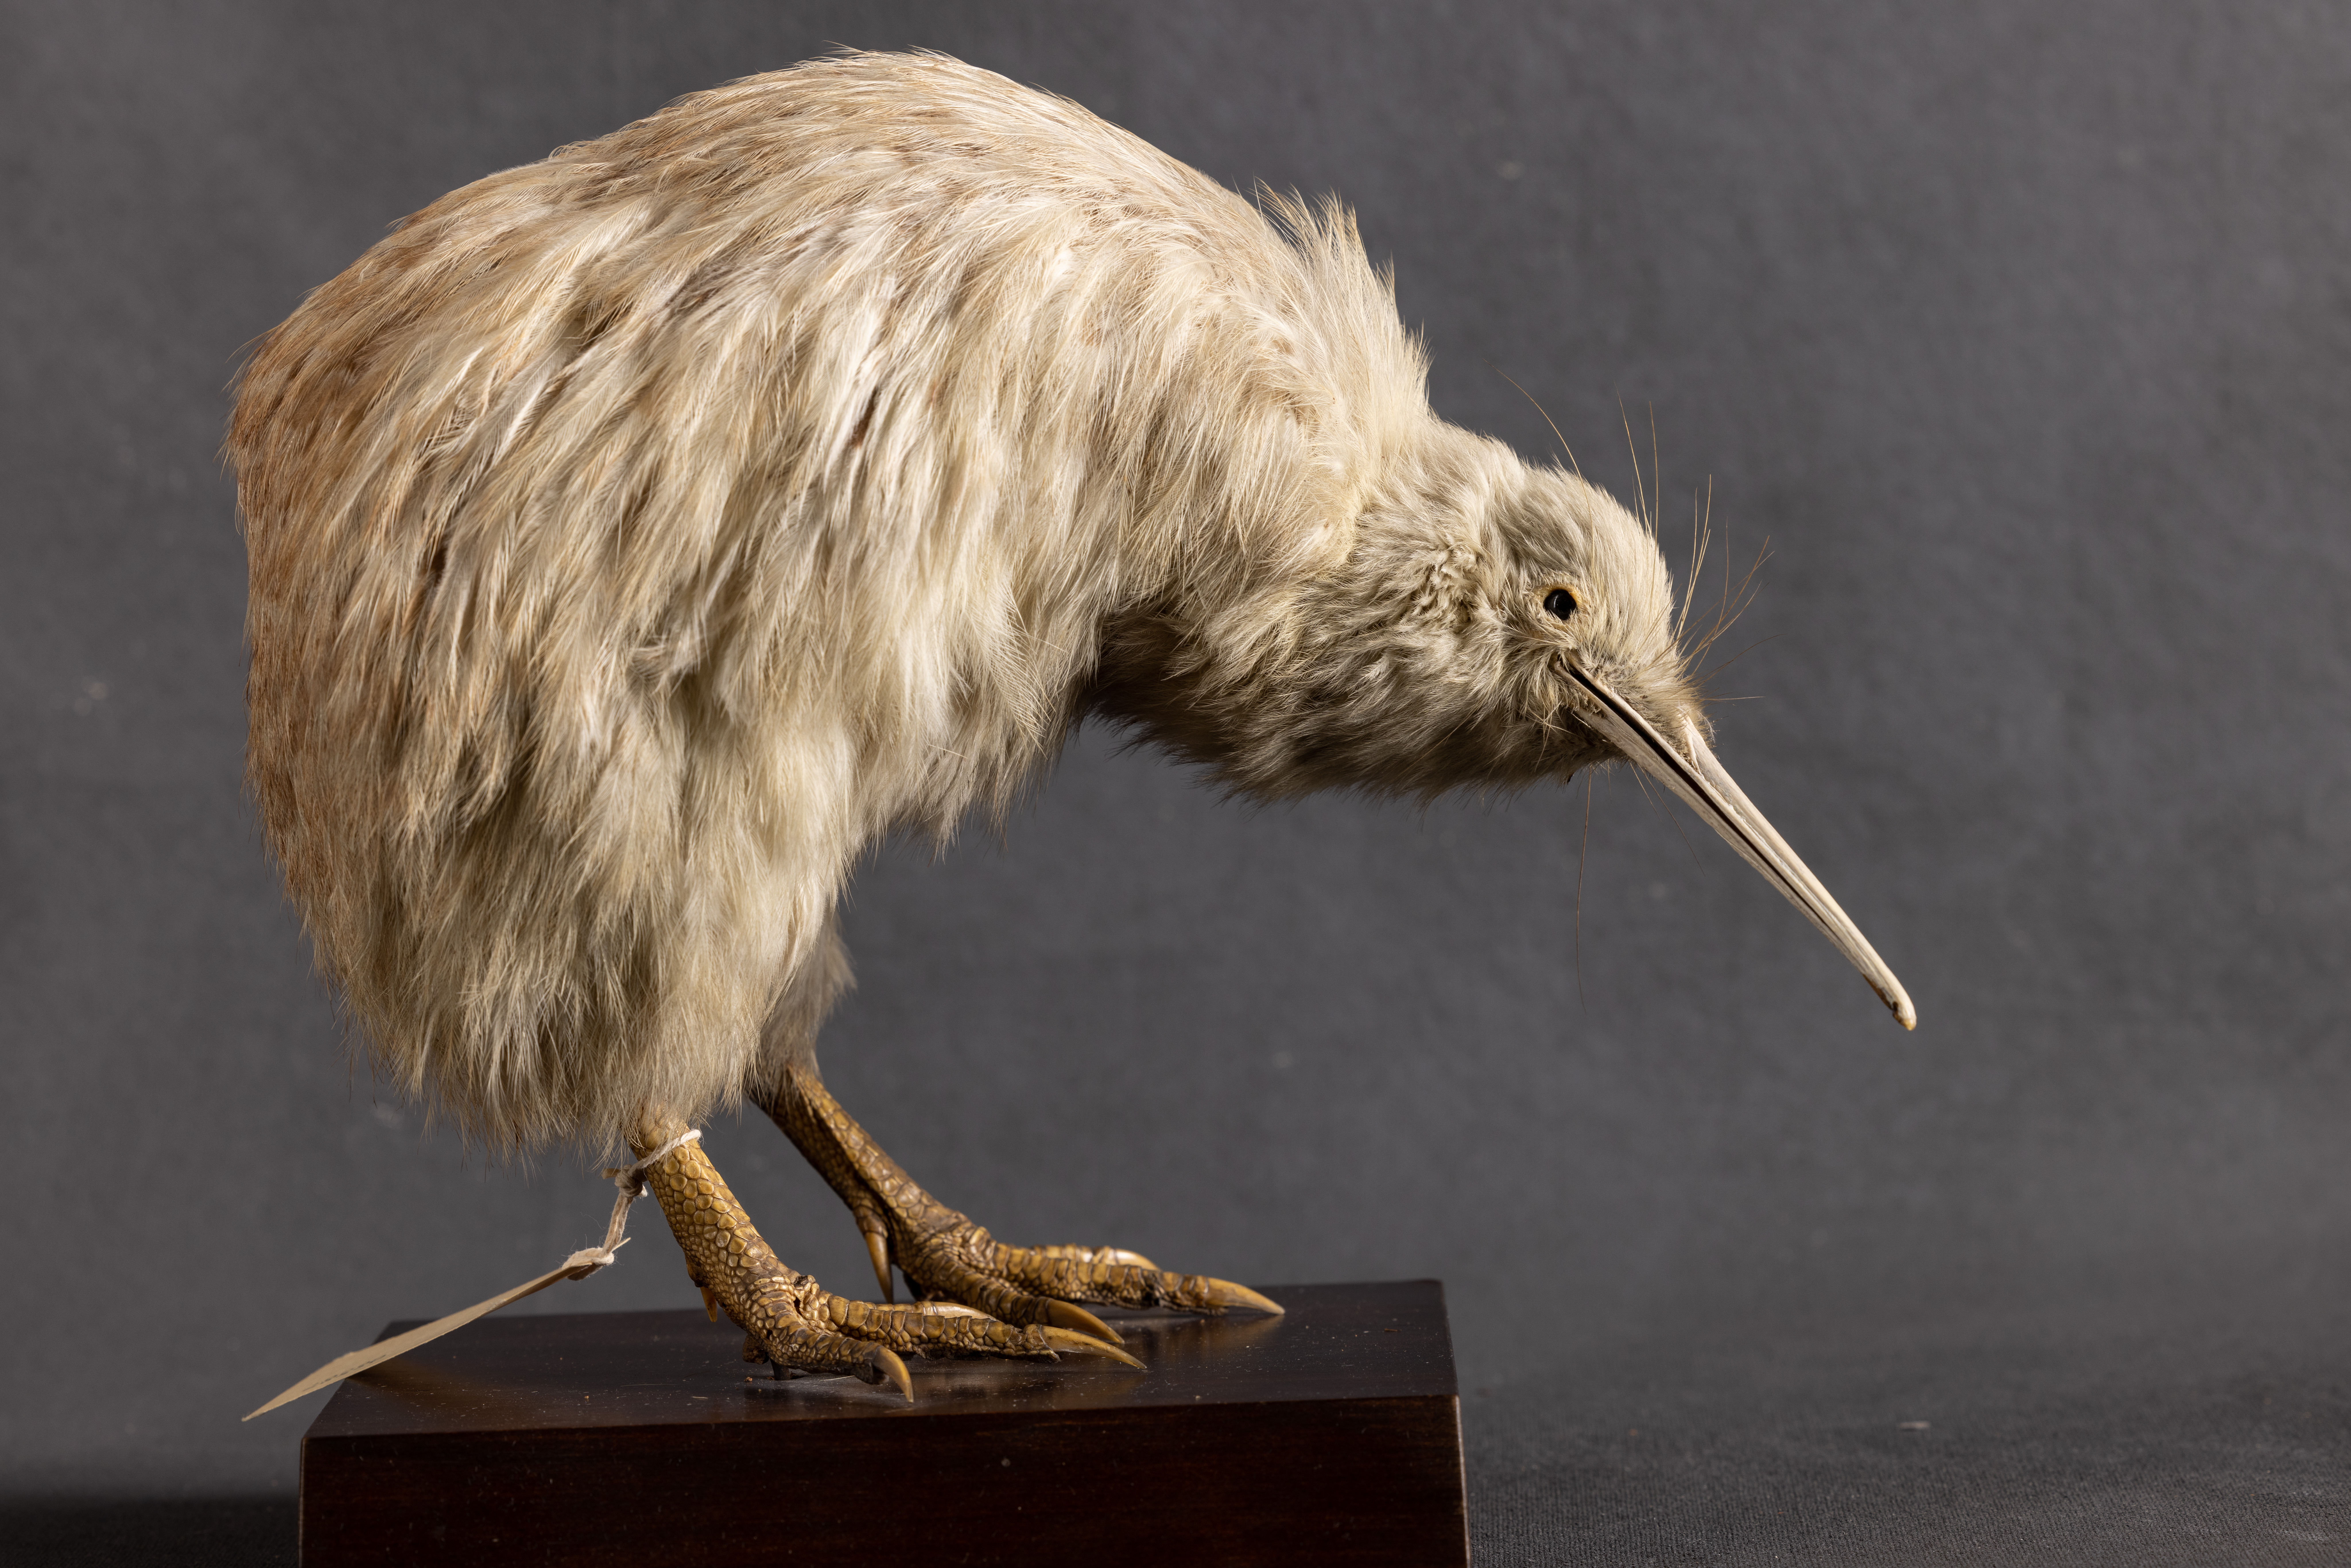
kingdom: Animalia
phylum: Chordata
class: Aves
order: Apterygiformes
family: Apterygidae
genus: Apteryx
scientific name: Apteryx owenii
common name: Little spotted kiwi
